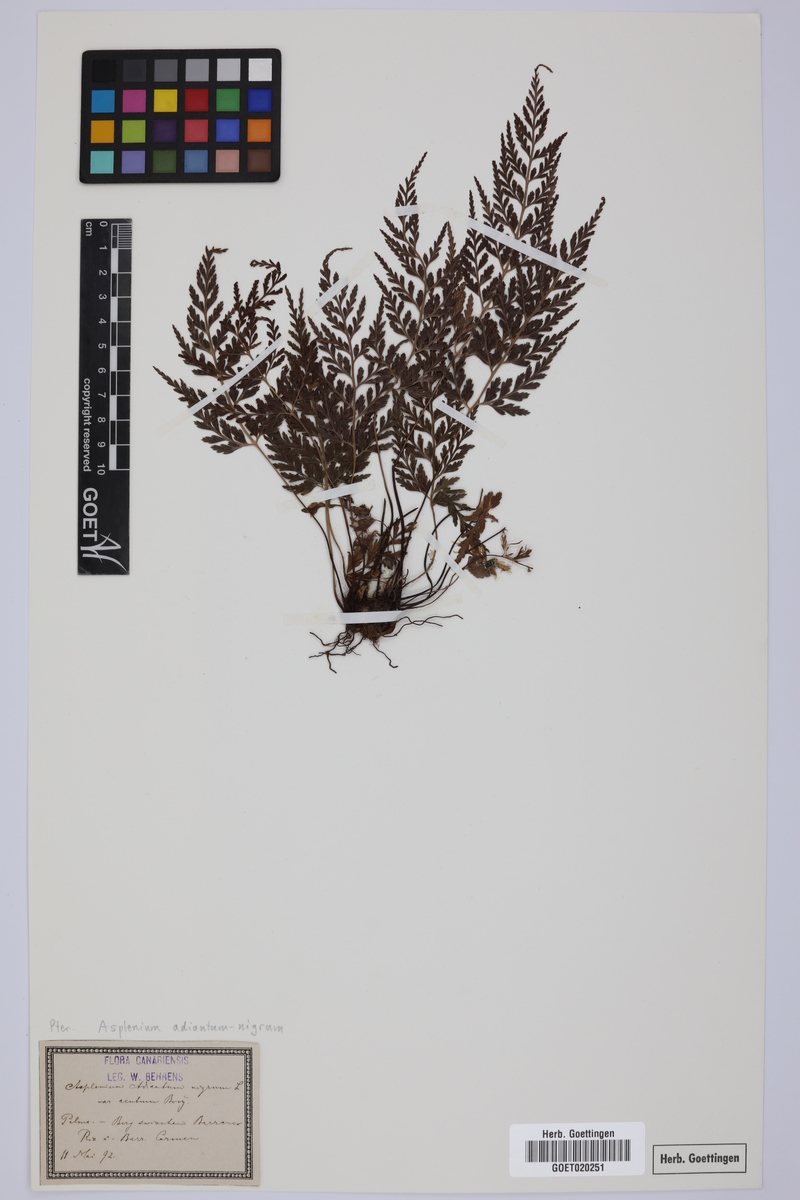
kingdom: Plantae
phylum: Tracheophyta
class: Polypodiopsida
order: Polypodiales
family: Aspleniaceae
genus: Asplenium
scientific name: Asplenium adiantum-nigrum
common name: Black spleenwort
